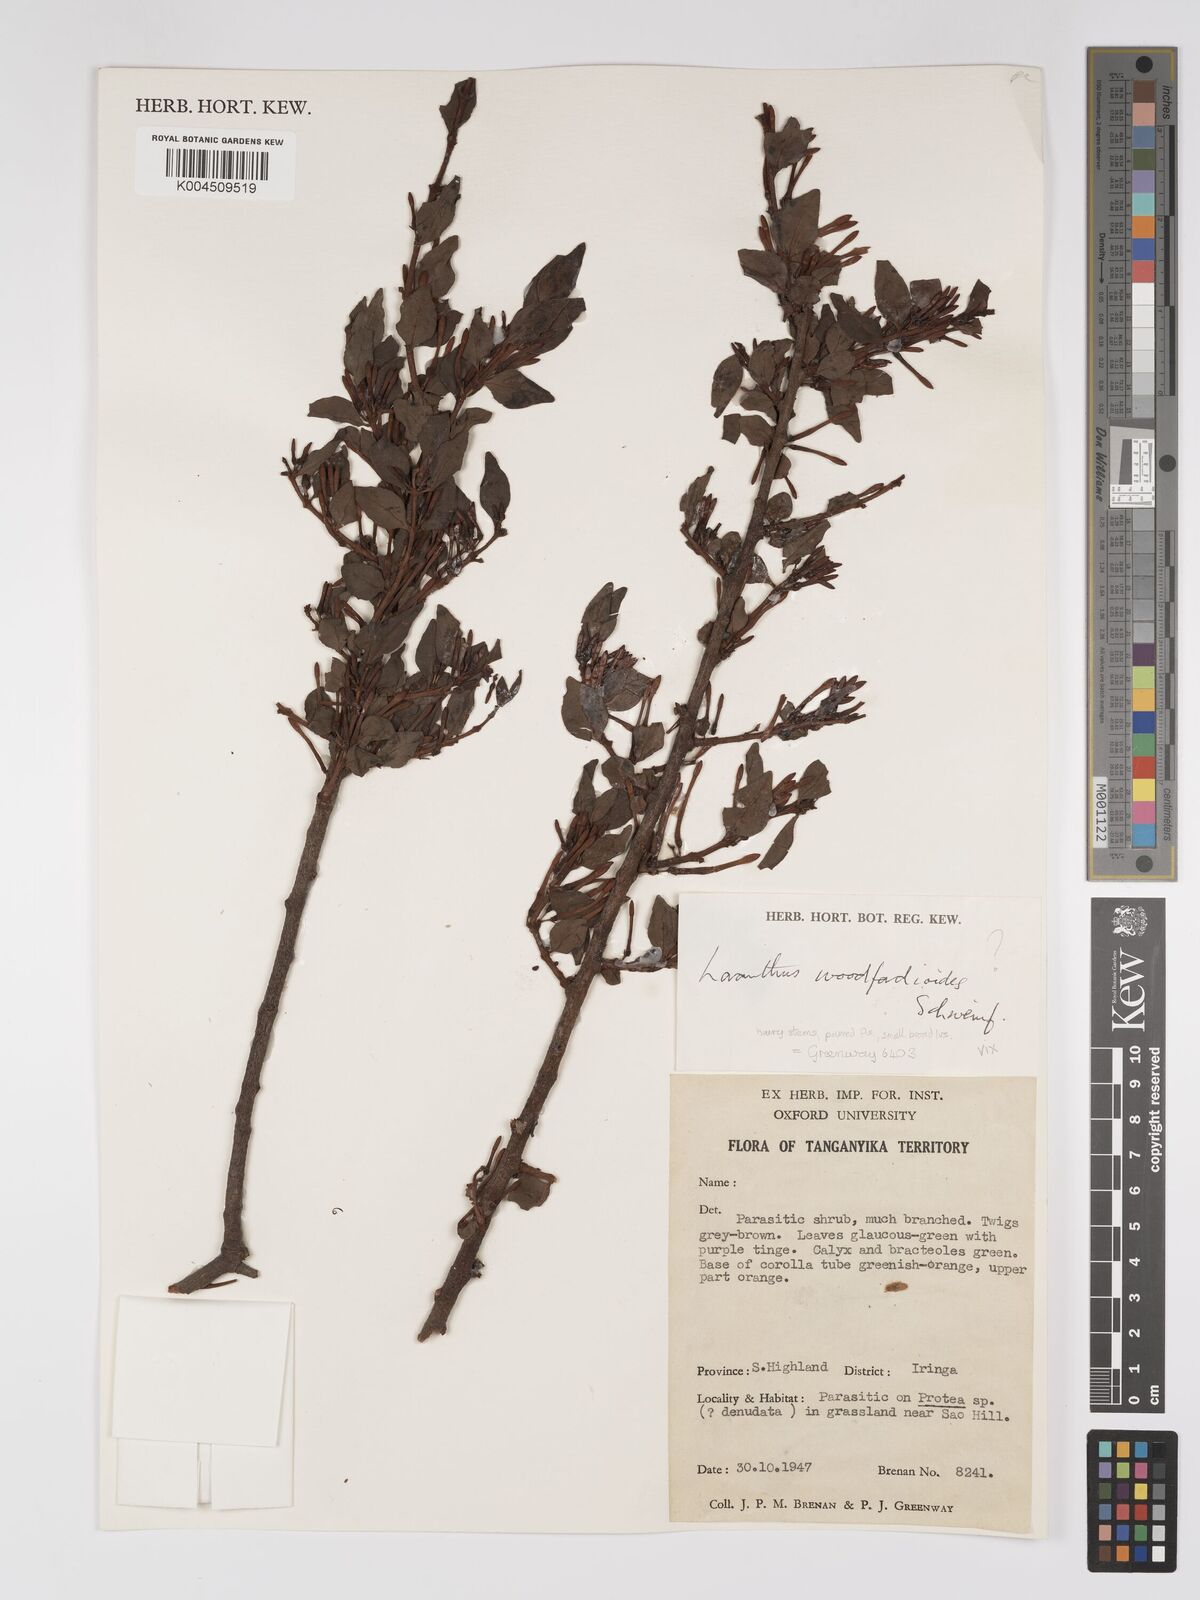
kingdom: Plantae
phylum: Tracheophyta
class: Magnoliopsida
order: Santalales
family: Loranthaceae
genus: Englerina
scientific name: Englerina inaequilatera
